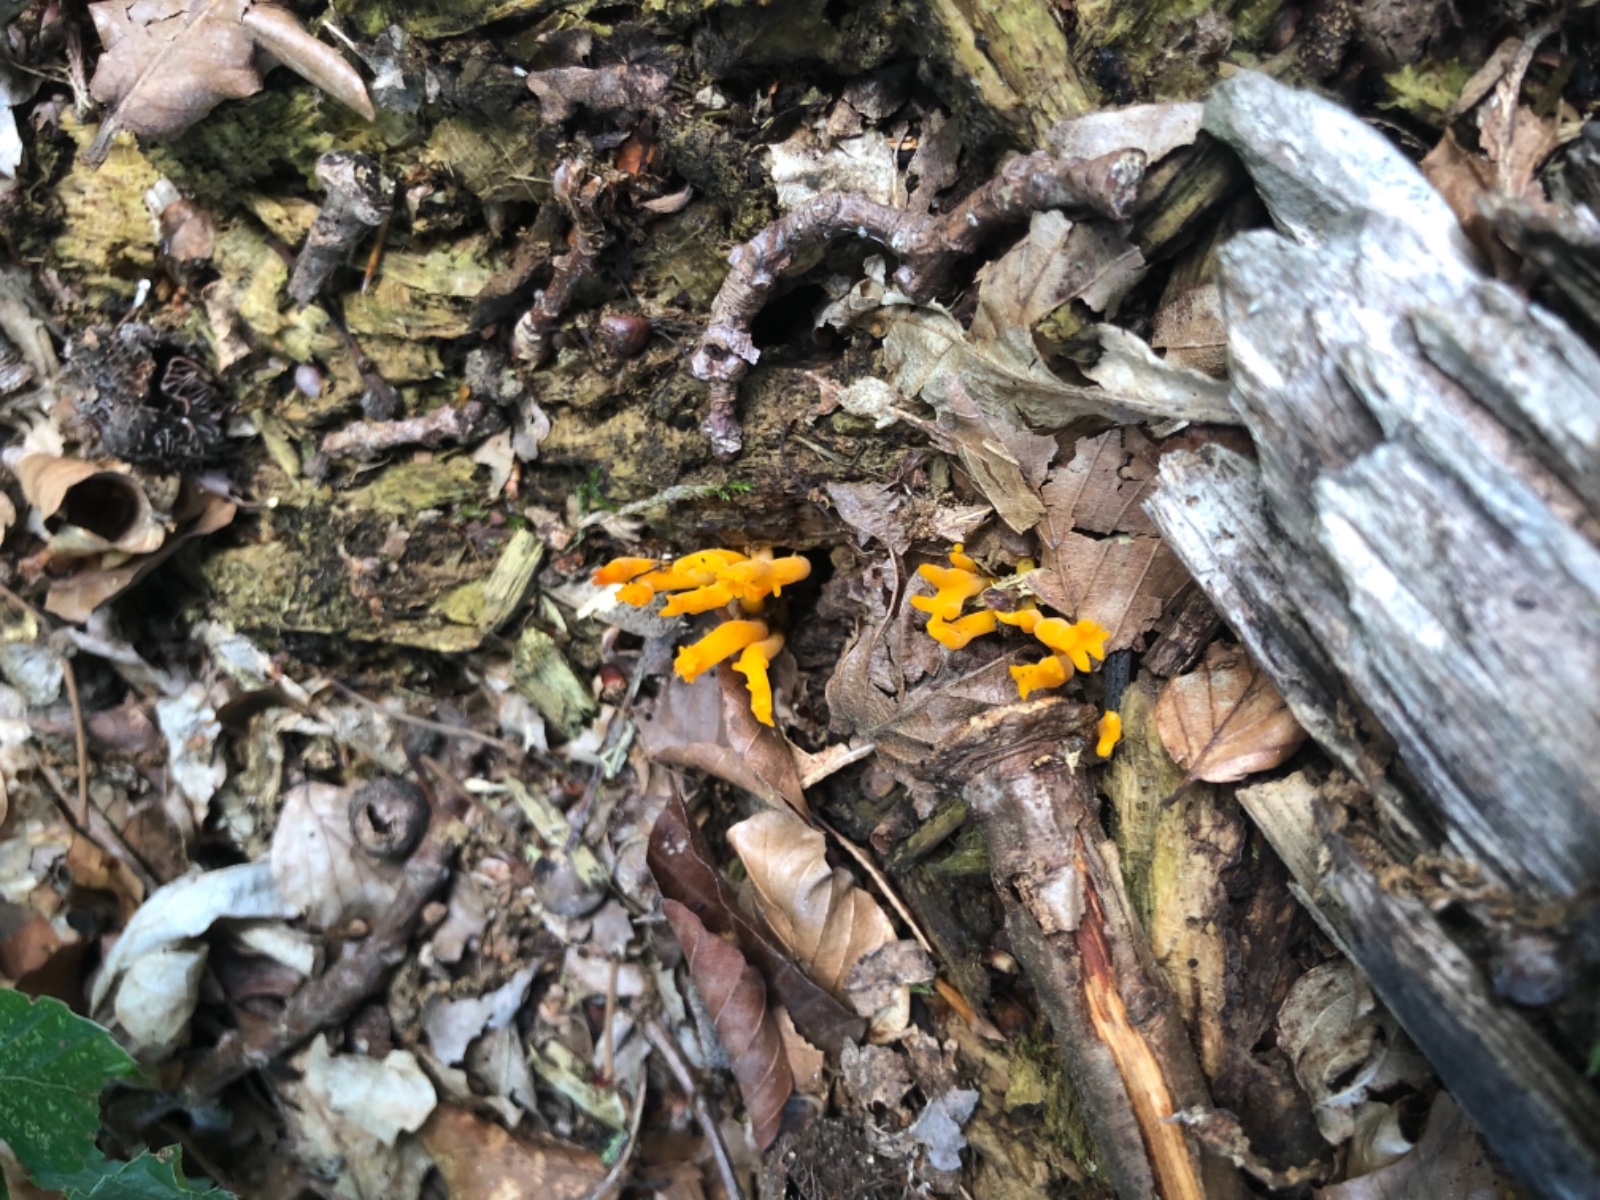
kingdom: Fungi
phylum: Basidiomycota
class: Dacrymycetes
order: Dacrymycetales
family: Dacrymycetaceae
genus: Calocera
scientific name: Calocera viscosa
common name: almindelig guldgaffel
